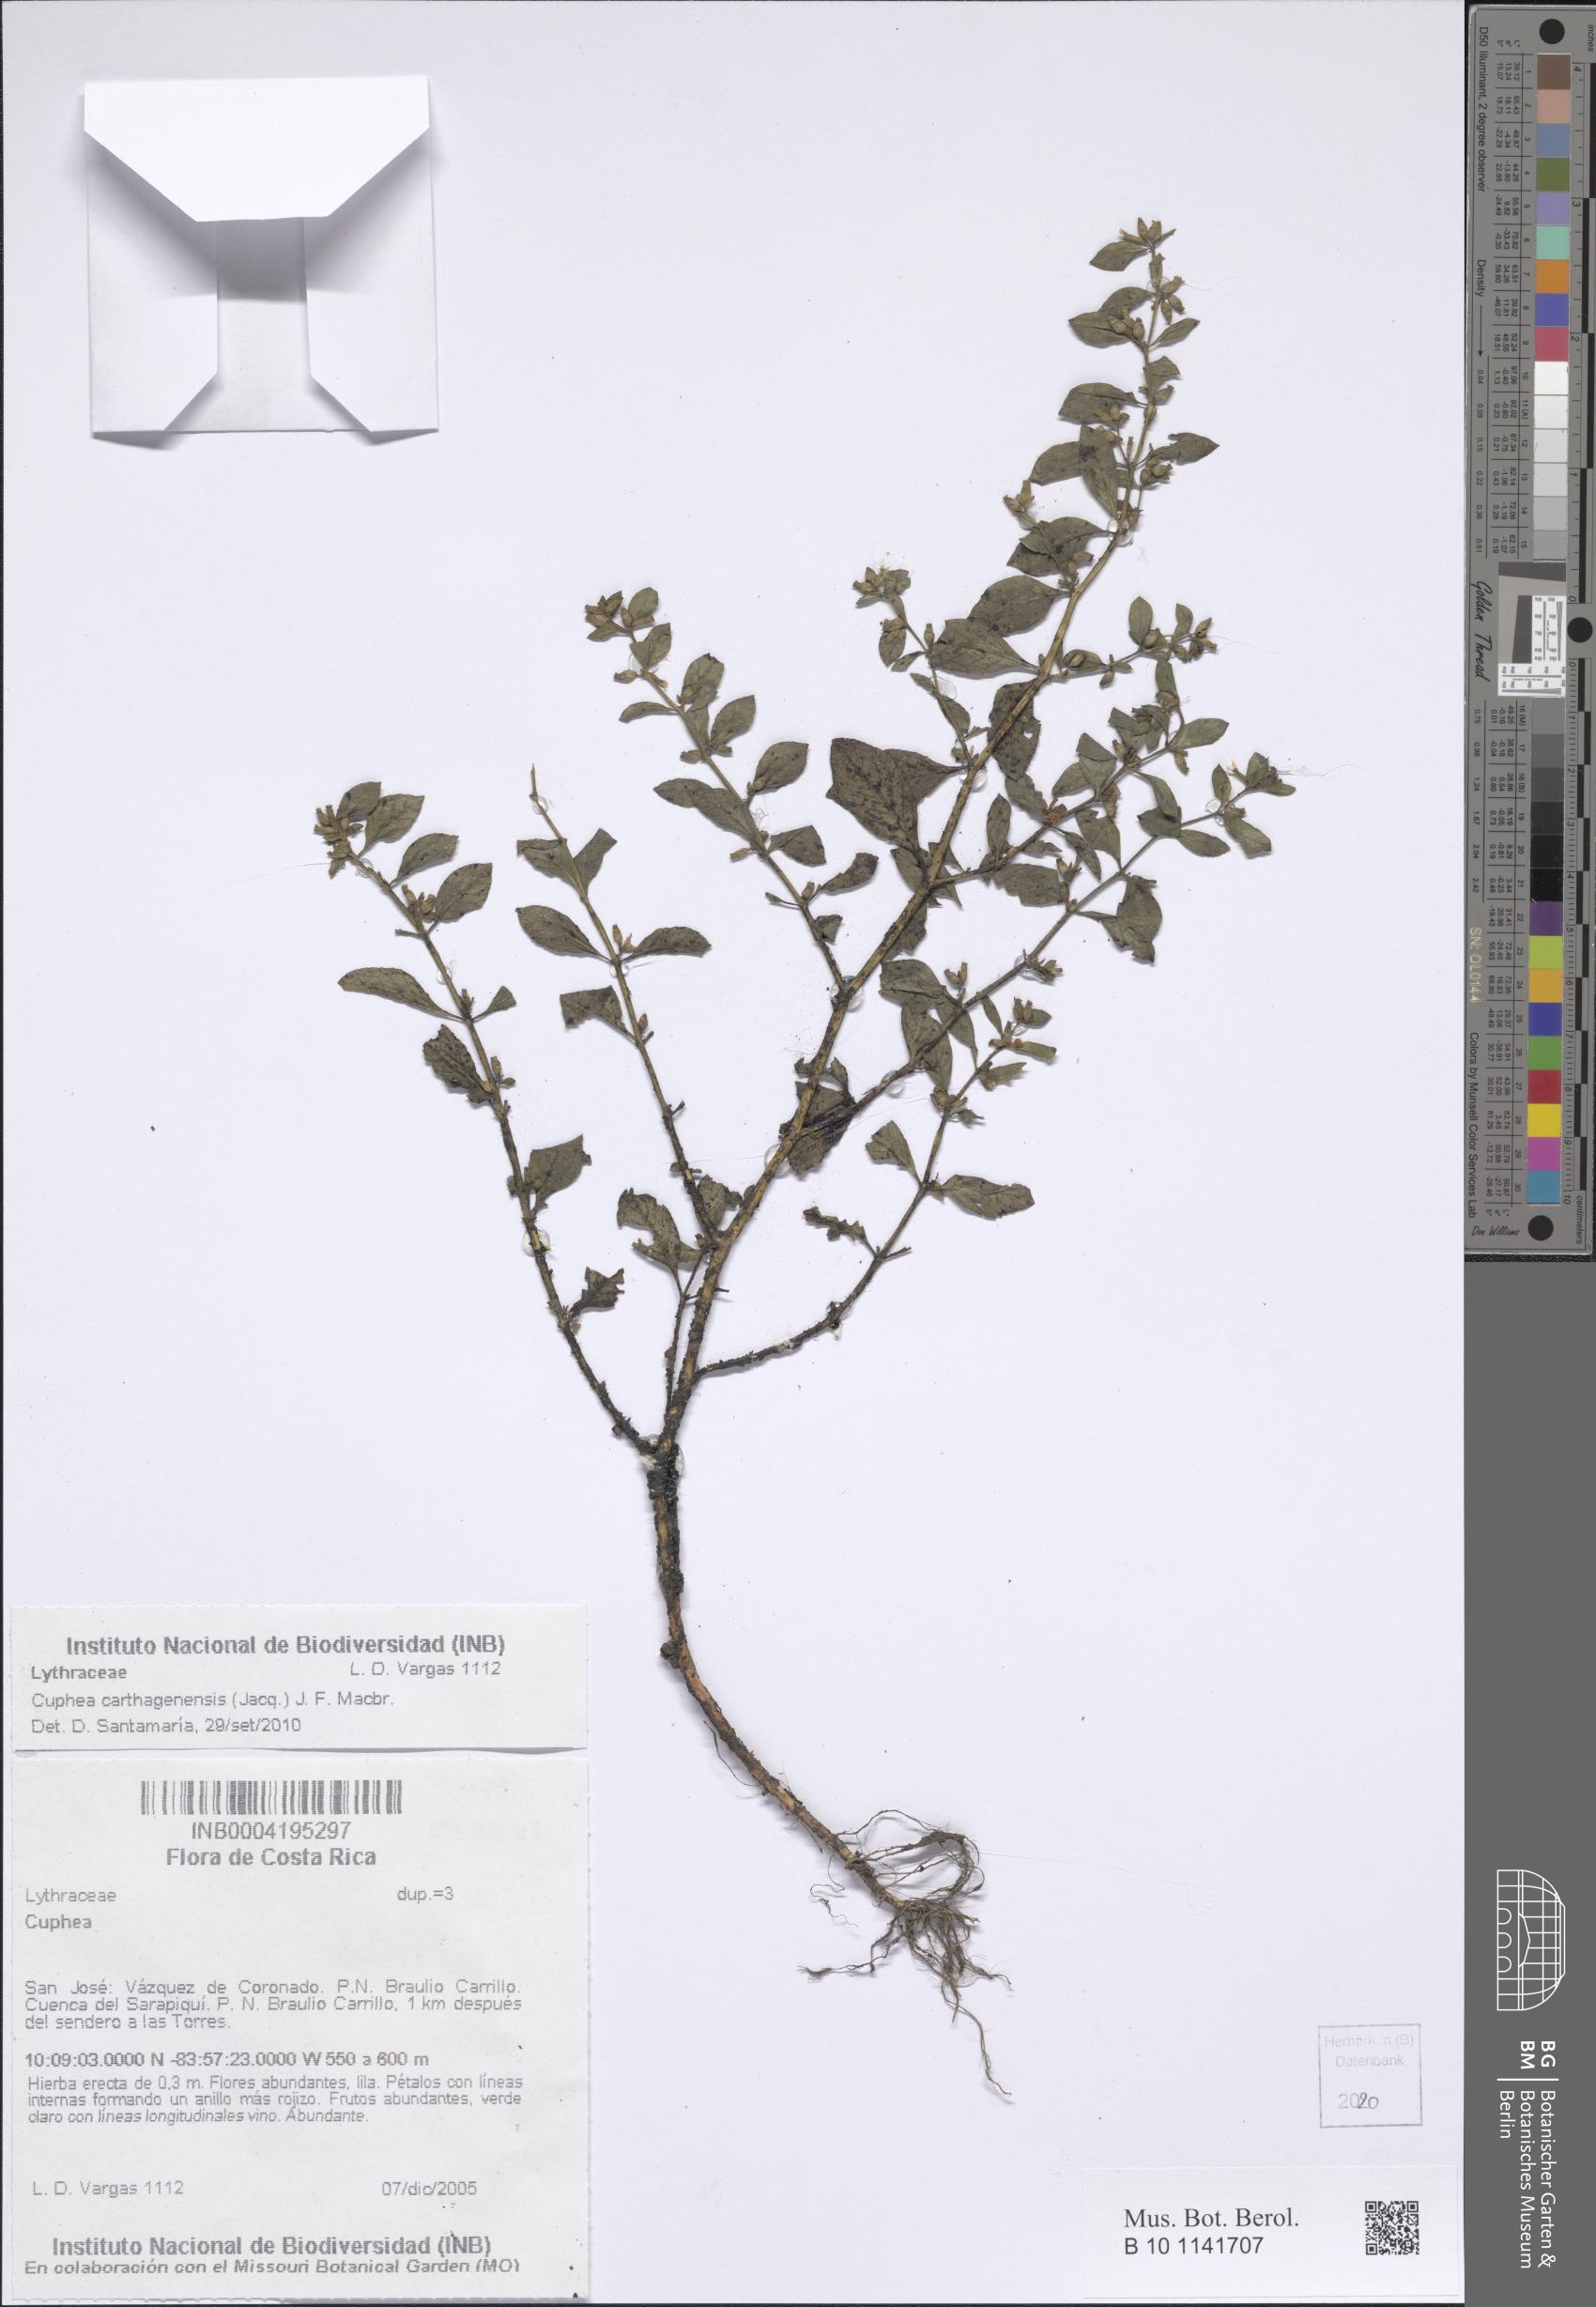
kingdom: Plantae
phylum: Tracheophyta
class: Magnoliopsida
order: Myrtales
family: Lythraceae
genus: Cuphea
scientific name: Cuphea carthagenensis
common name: Colombian waxweed
